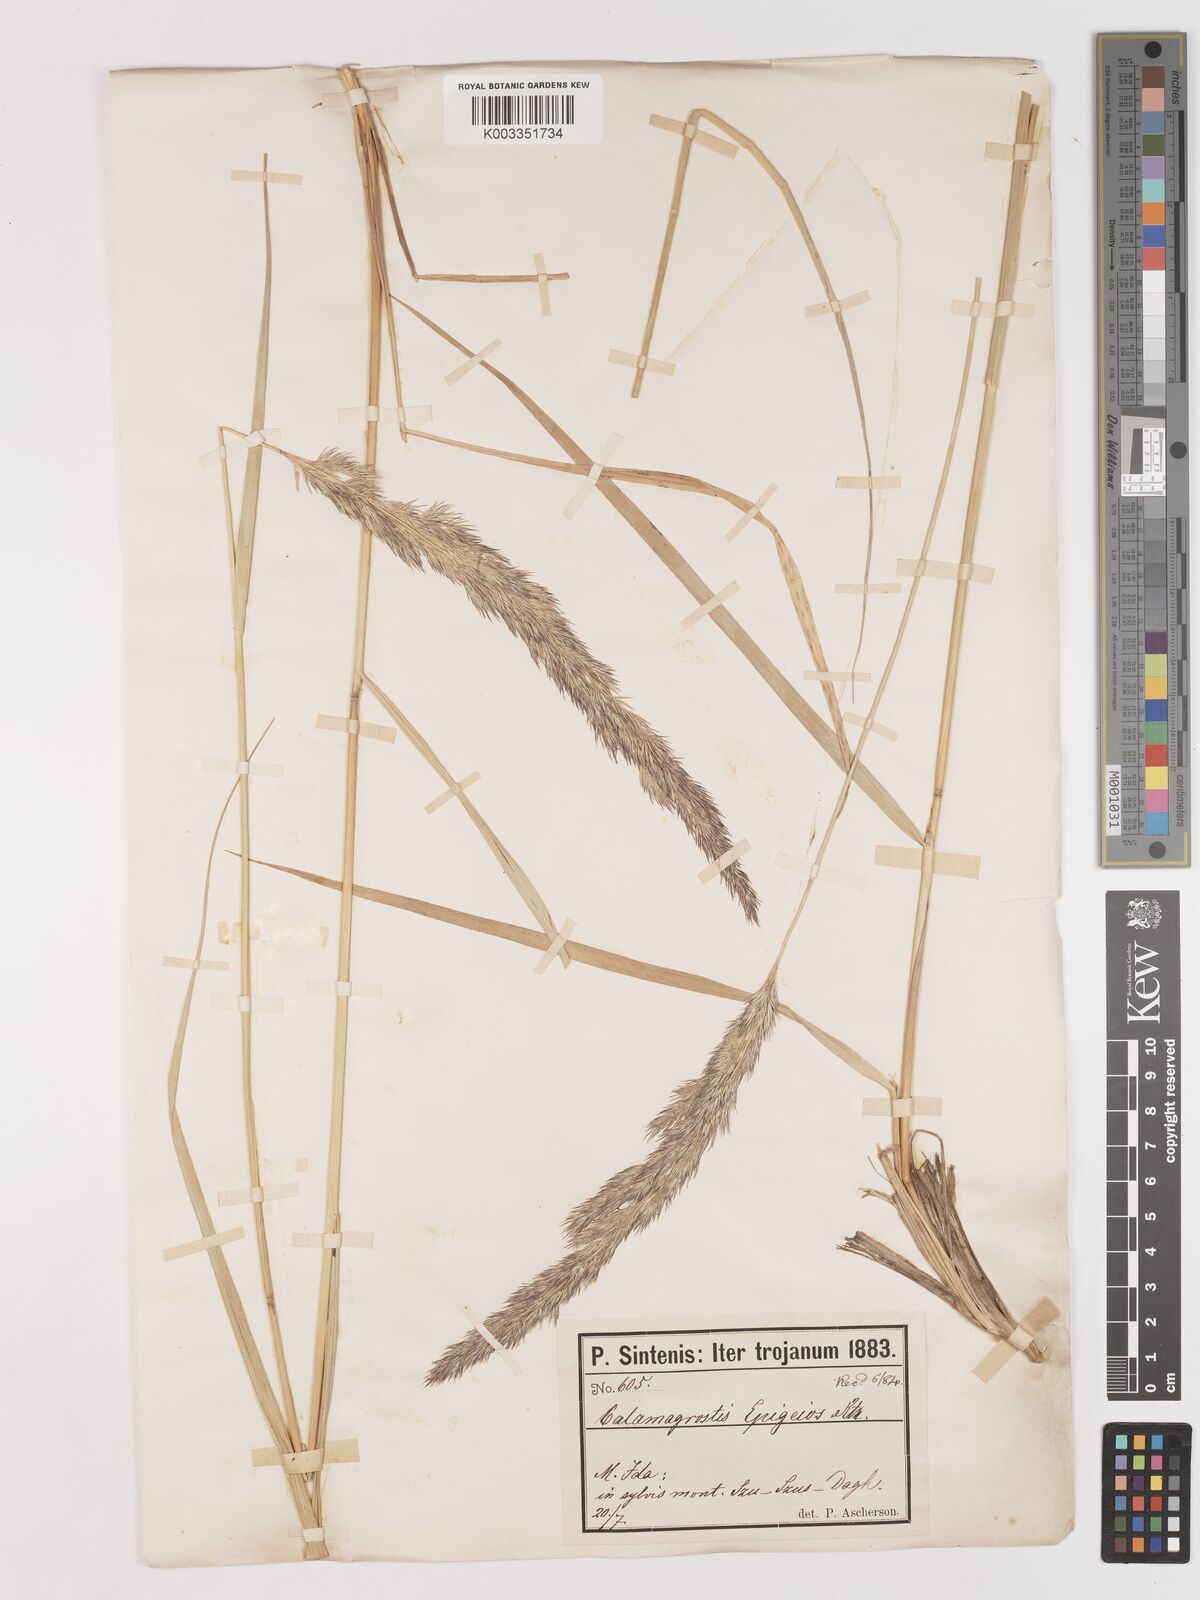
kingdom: Plantae
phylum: Tracheophyta
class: Liliopsida
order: Poales
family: Poaceae
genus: Calamagrostis
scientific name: Calamagrostis
